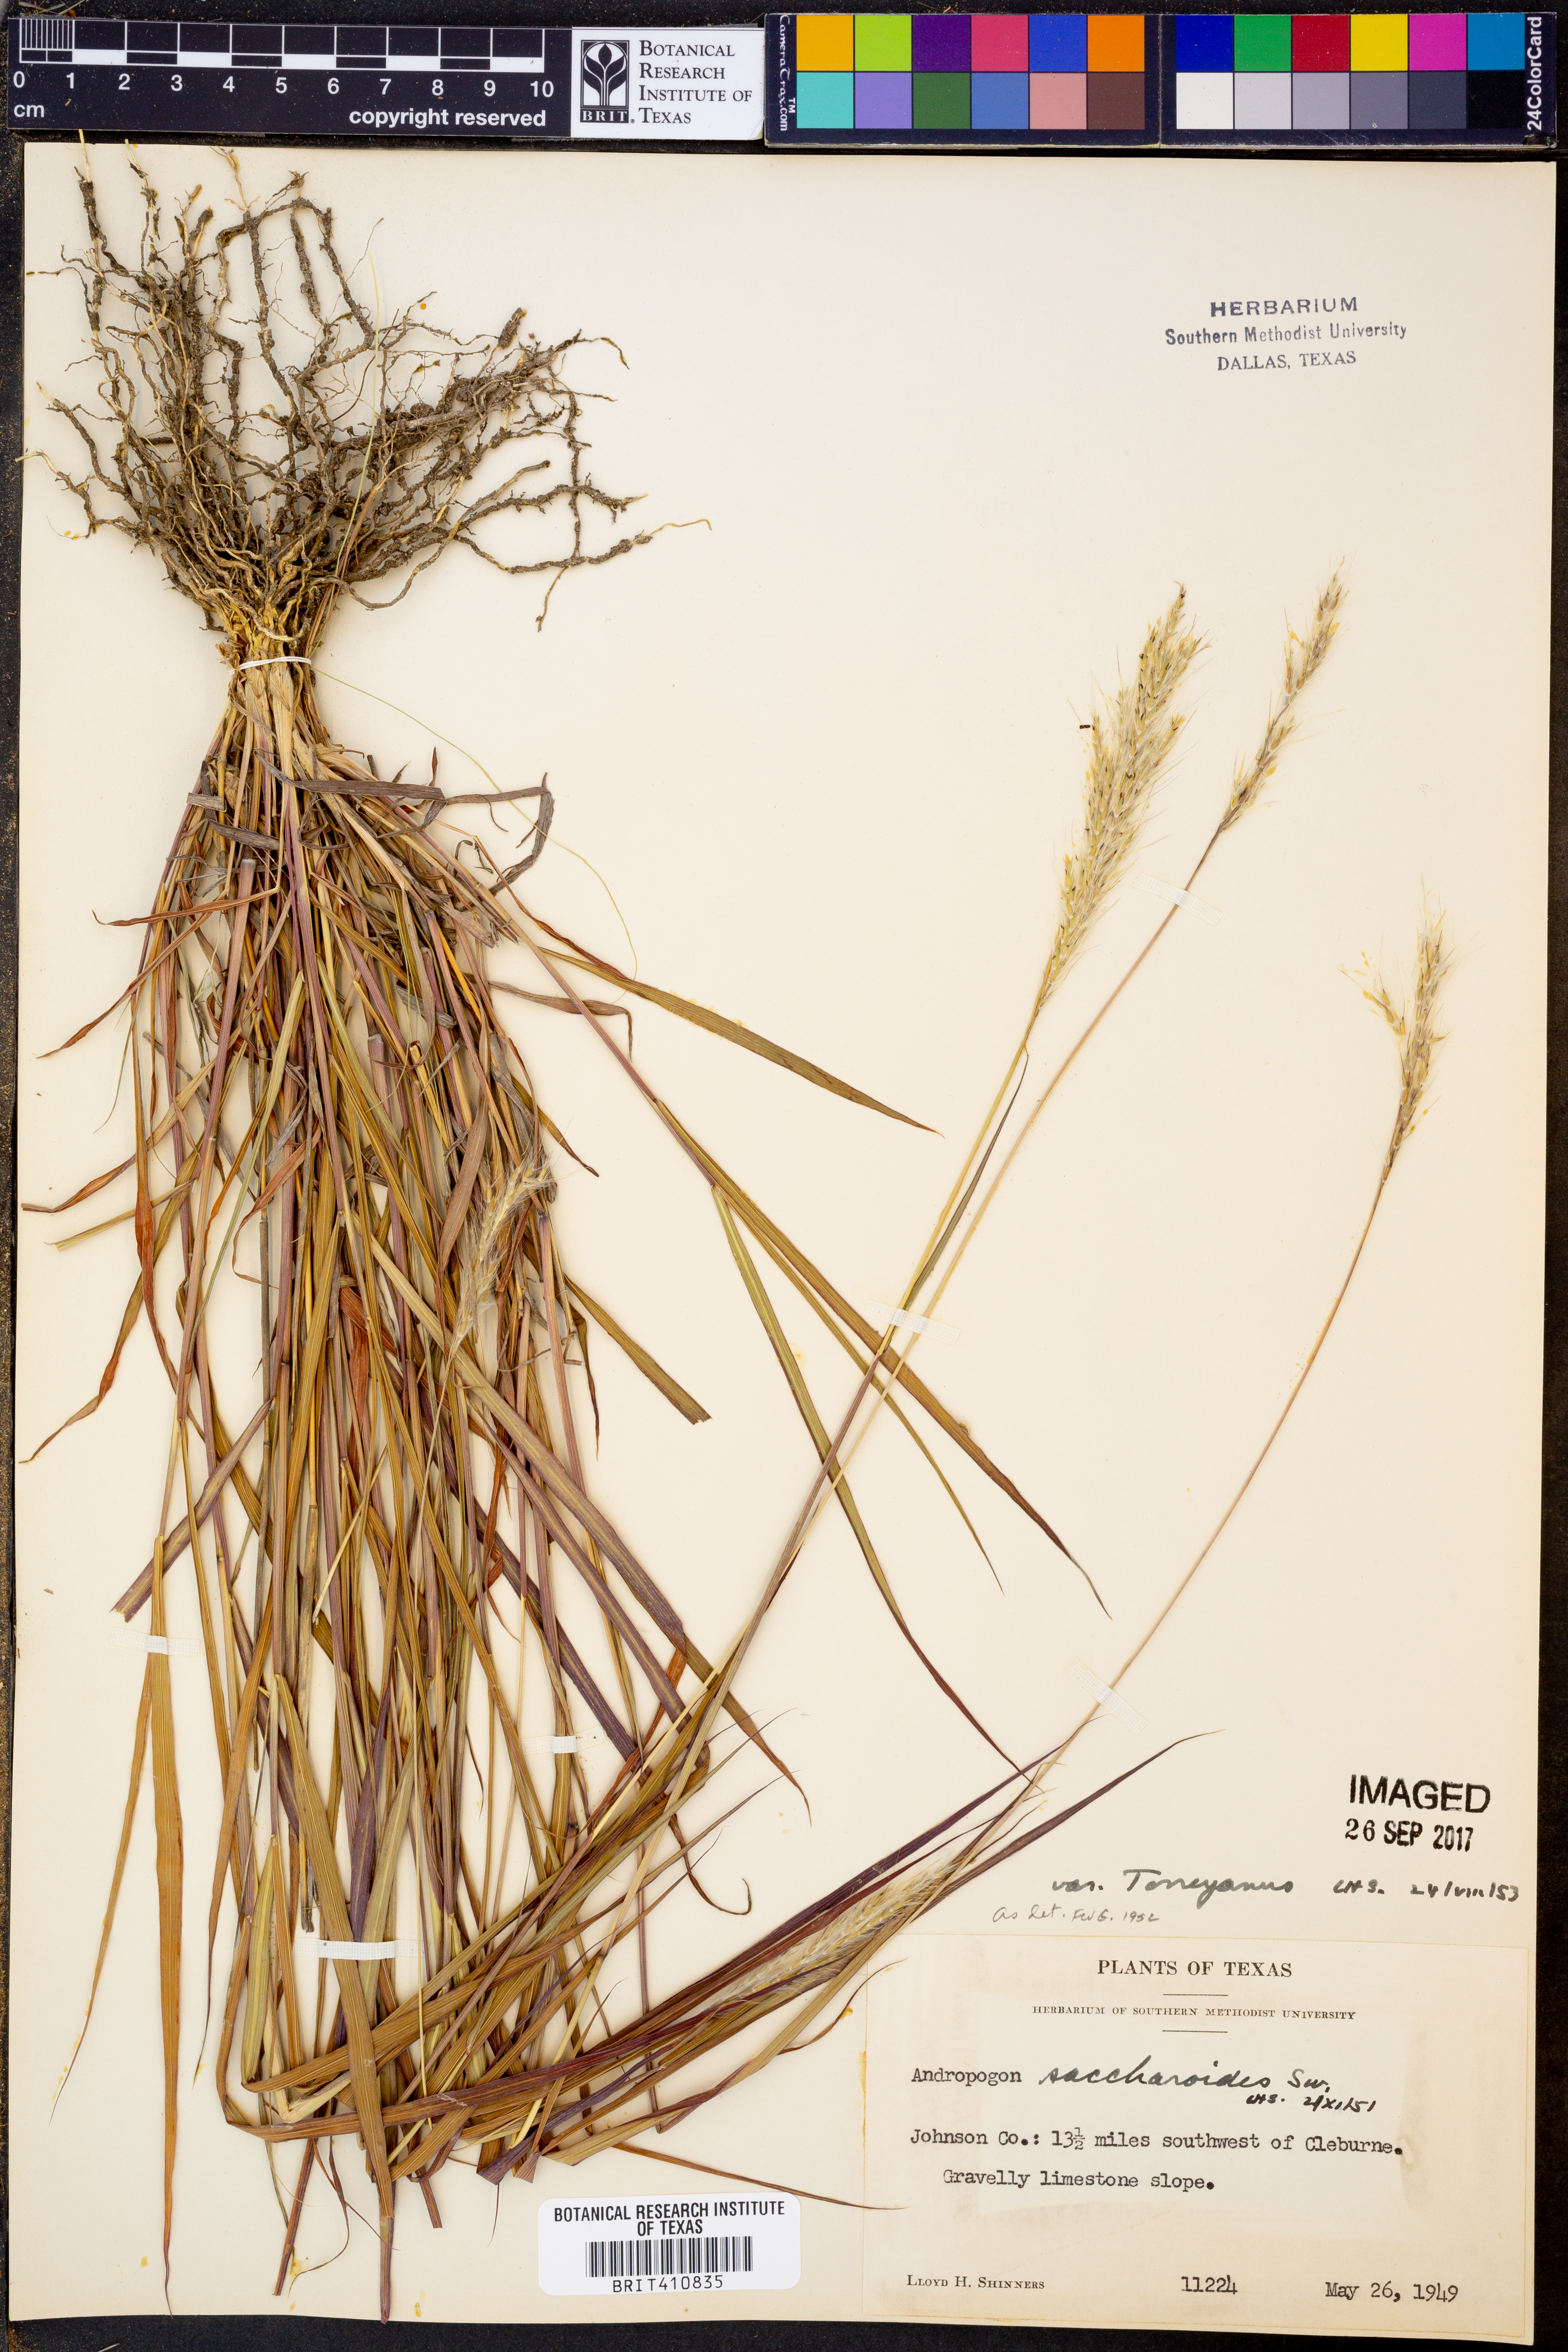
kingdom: Plantae
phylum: Tracheophyta
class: Liliopsida
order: Poales
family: Poaceae
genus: Bothriochloa
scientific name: Bothriochloa torreyana
